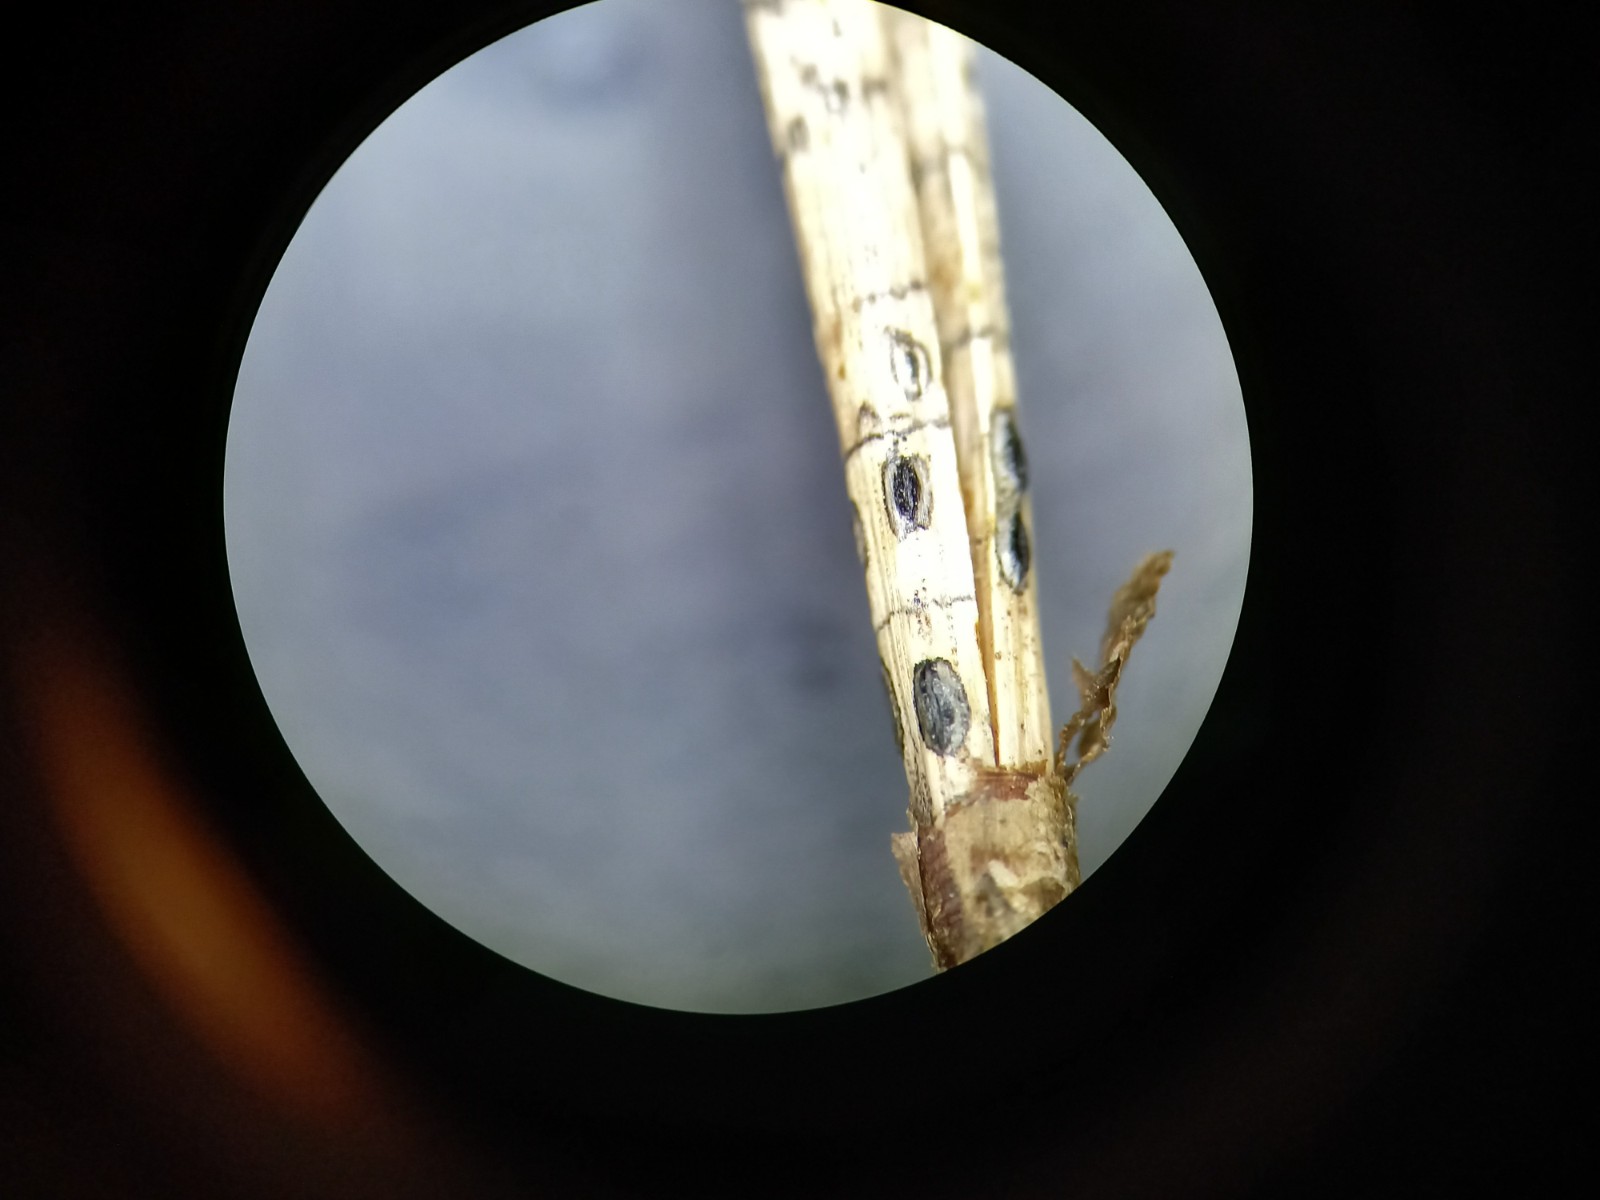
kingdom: Fungi
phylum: Ascomycota
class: Leotiomycetes
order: Rhytismatales
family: Rhytismataceae
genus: Lophodermium
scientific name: Lophodermium pinastri
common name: fyrre-fureplet
